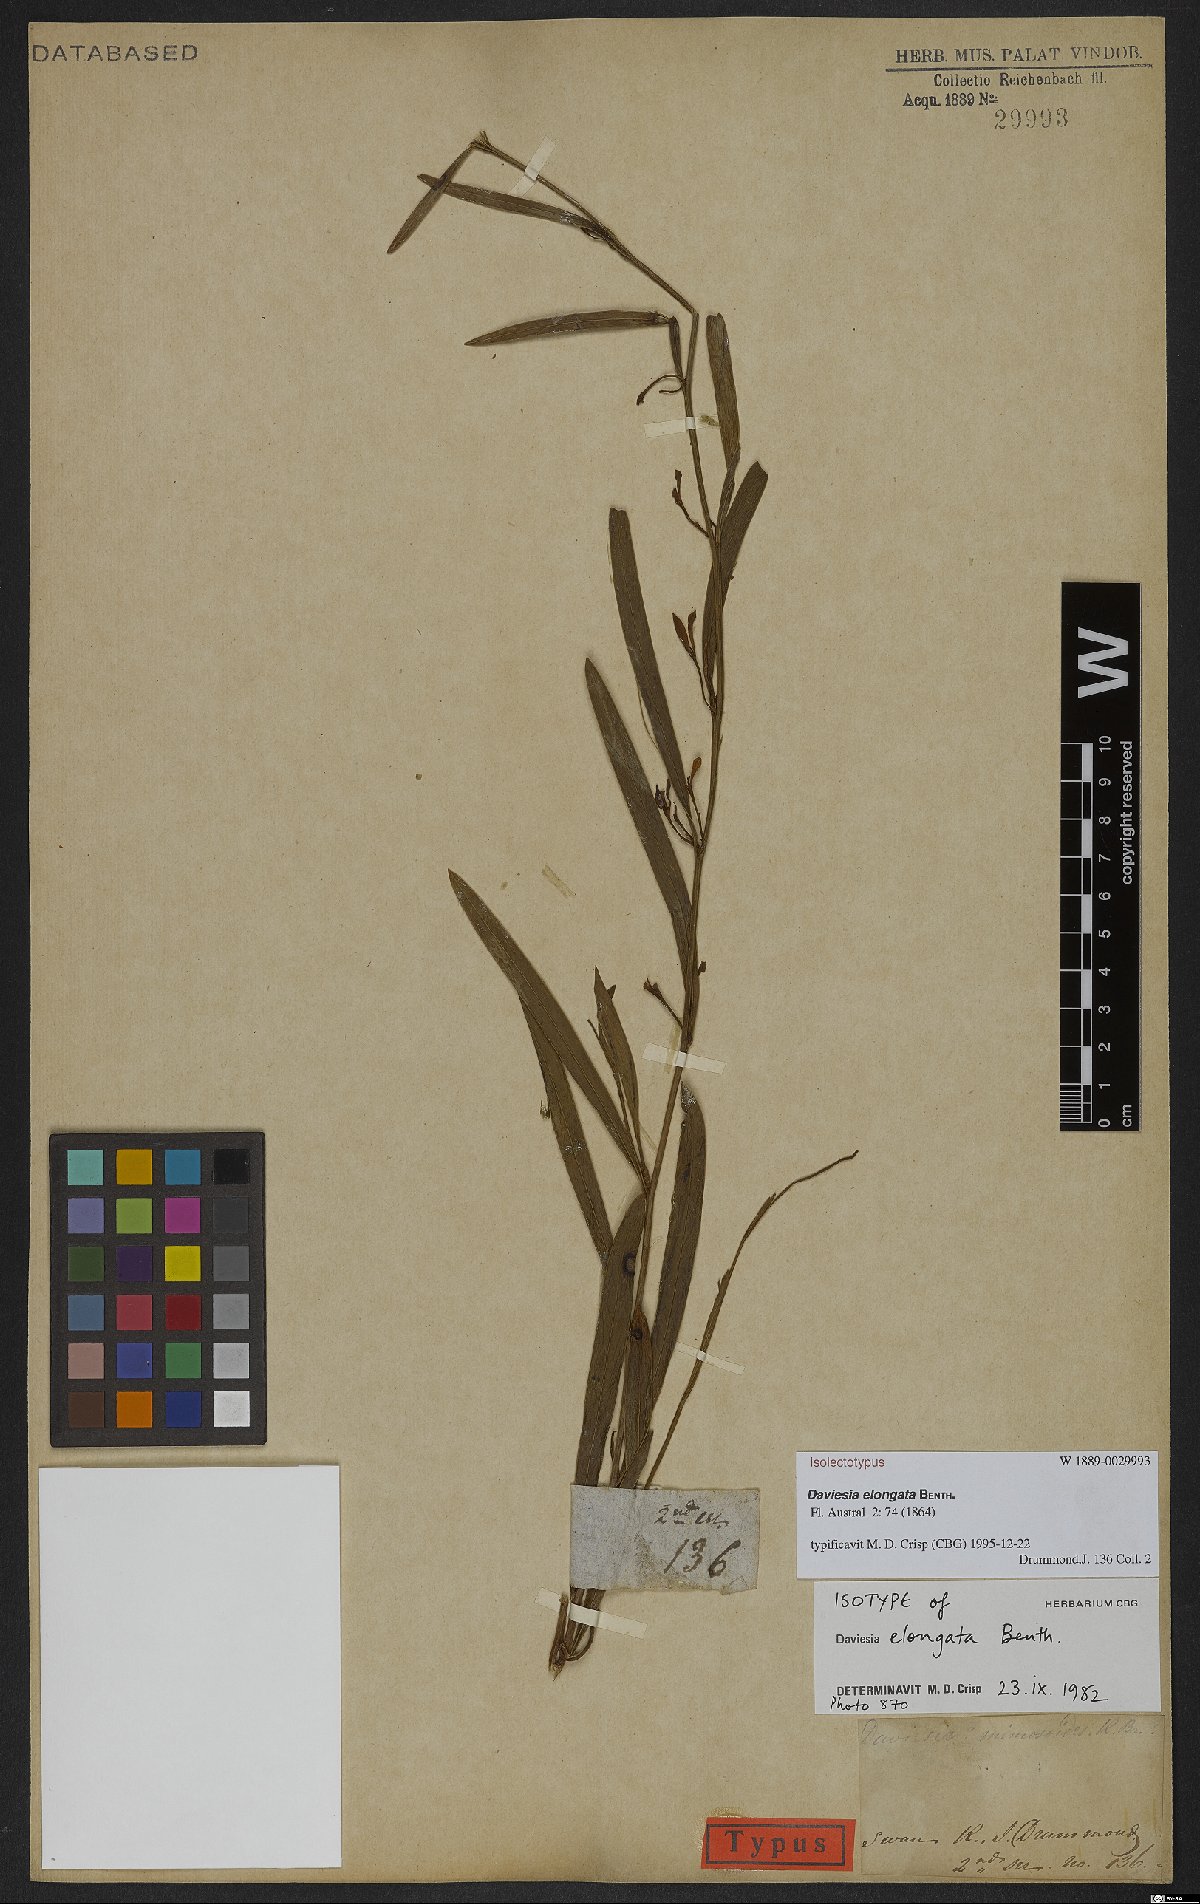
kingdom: Plantae
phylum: Tracheophyta
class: Magnoliopsida
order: Fabales
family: Fabaceae
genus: Daviesia
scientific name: Daviesia elongata
